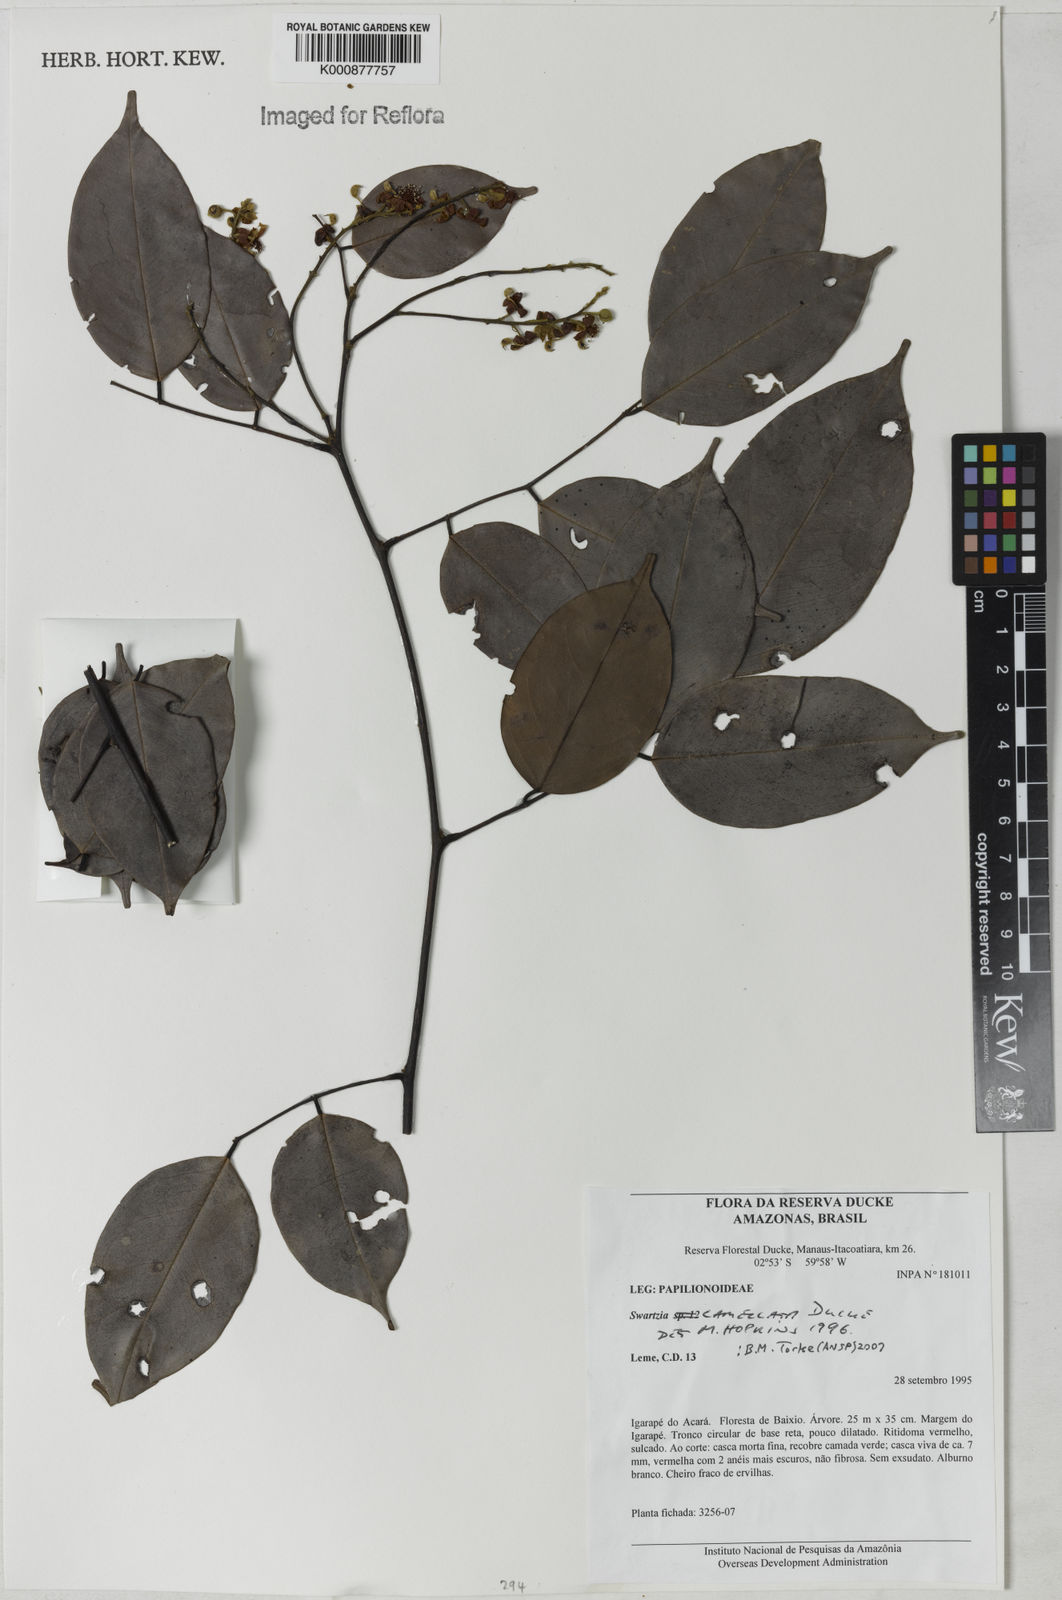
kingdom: Plantae
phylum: Tracheophyta
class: Magnoliopsida
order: Fabales
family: Fabaceae
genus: Swartzia
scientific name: Swartzia lamellata
